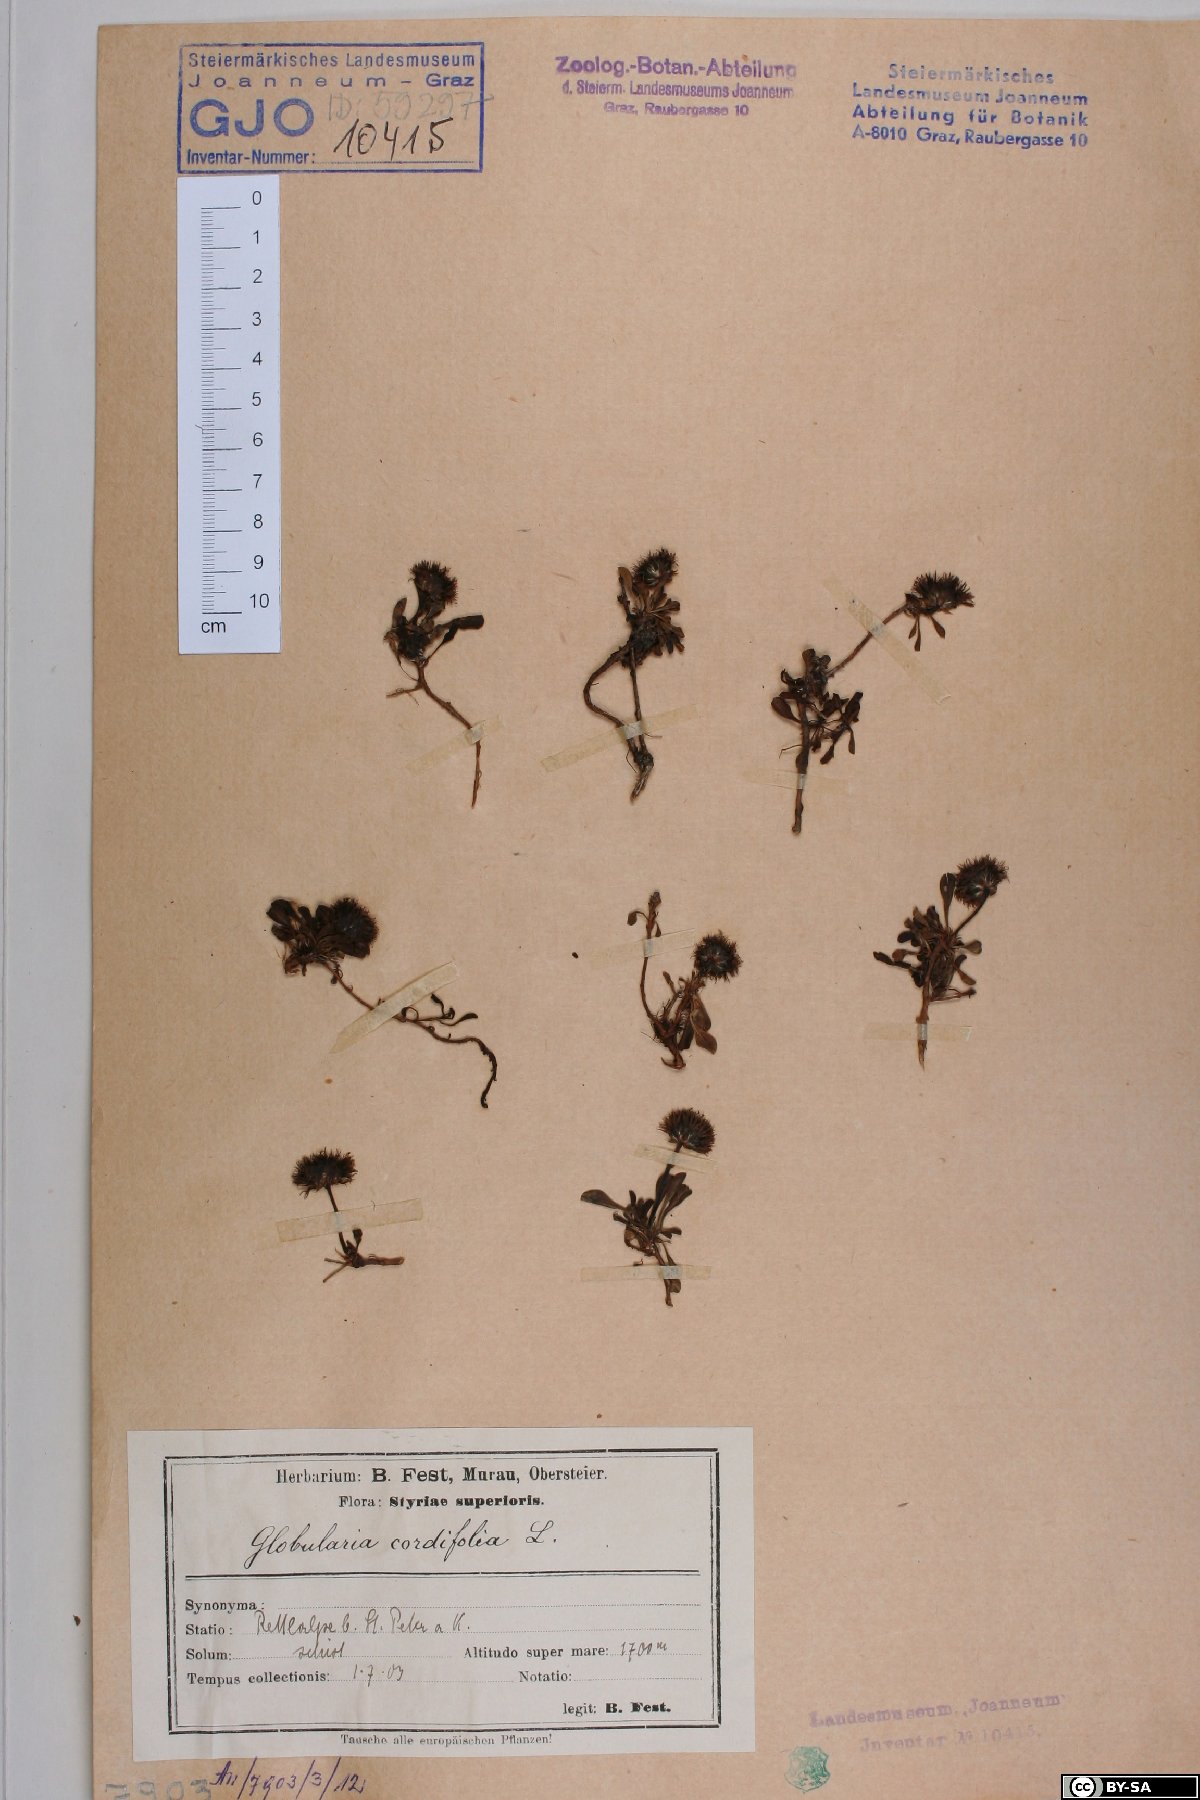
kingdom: Plantae
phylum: Tracheophyta
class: Magnoliopsida
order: Lamiales
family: Plantaginaceae
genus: Globularia
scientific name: Globularia cordifolia
